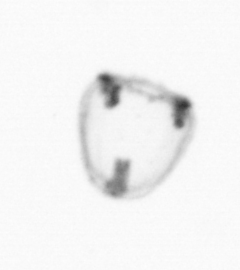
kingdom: Animalia
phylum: Cnidaria
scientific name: Cnidaria
